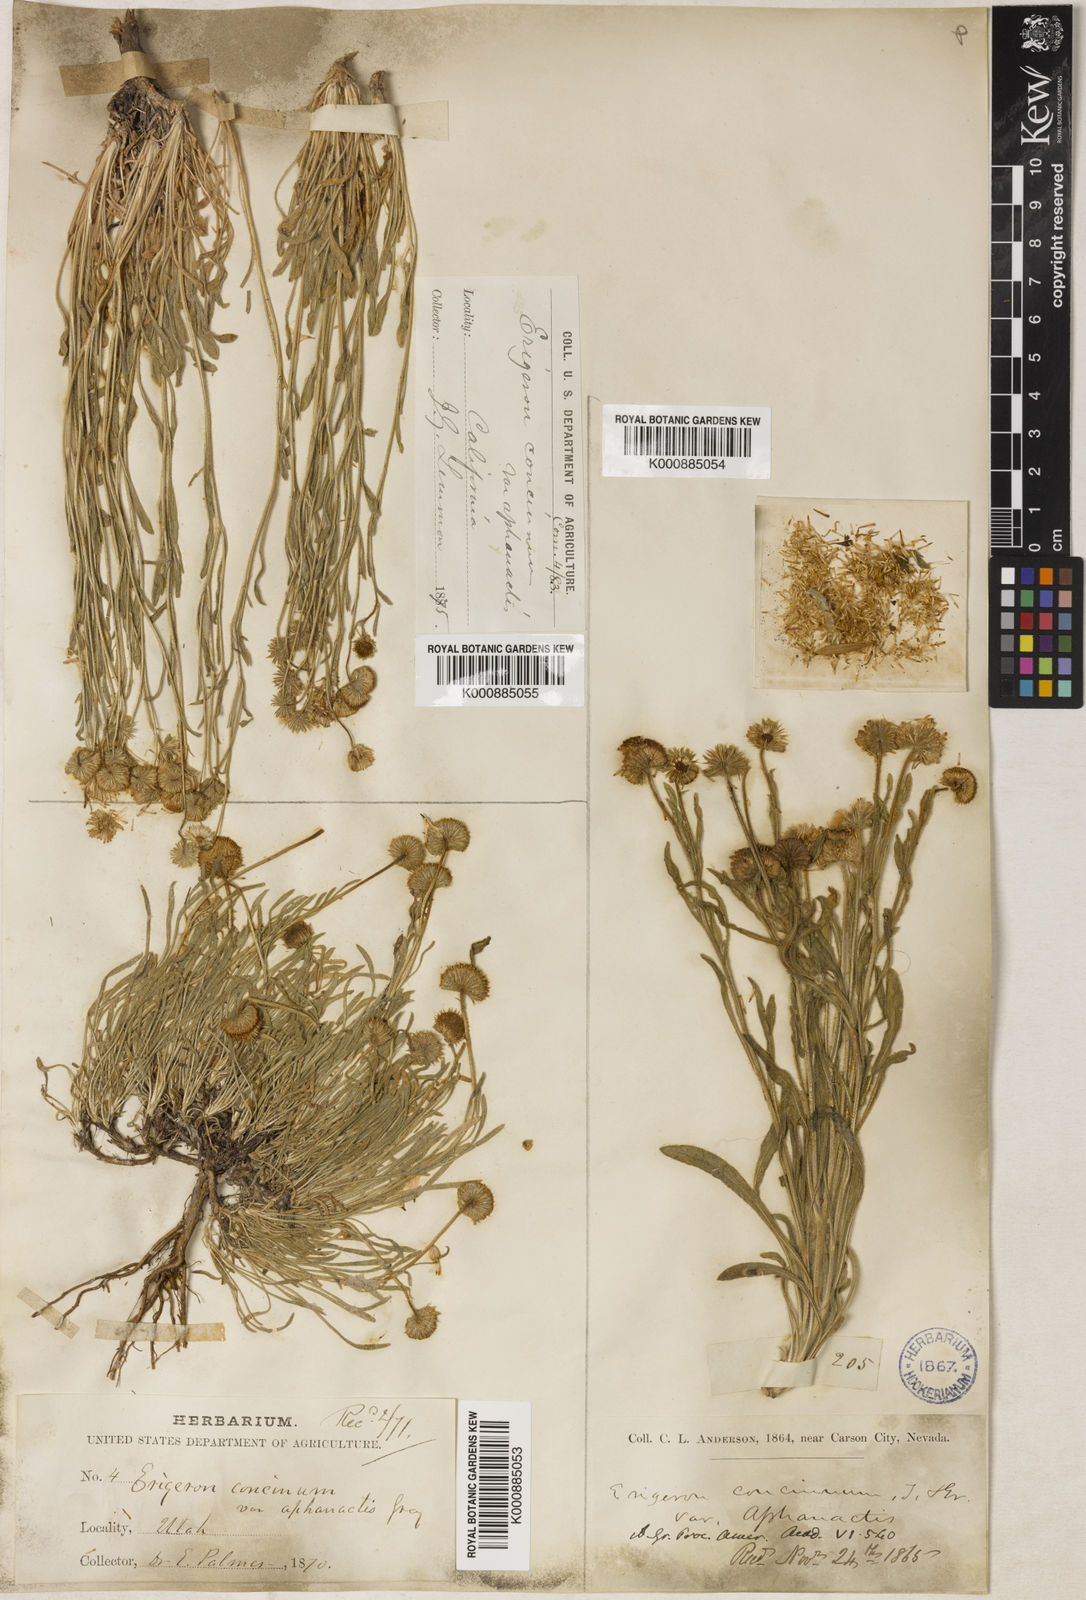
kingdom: Plantae
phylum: Tracheophyta
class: Magnoliopsida
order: Asterales
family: Asteraceae
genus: Erigeron
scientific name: Erigeron aphanactis
